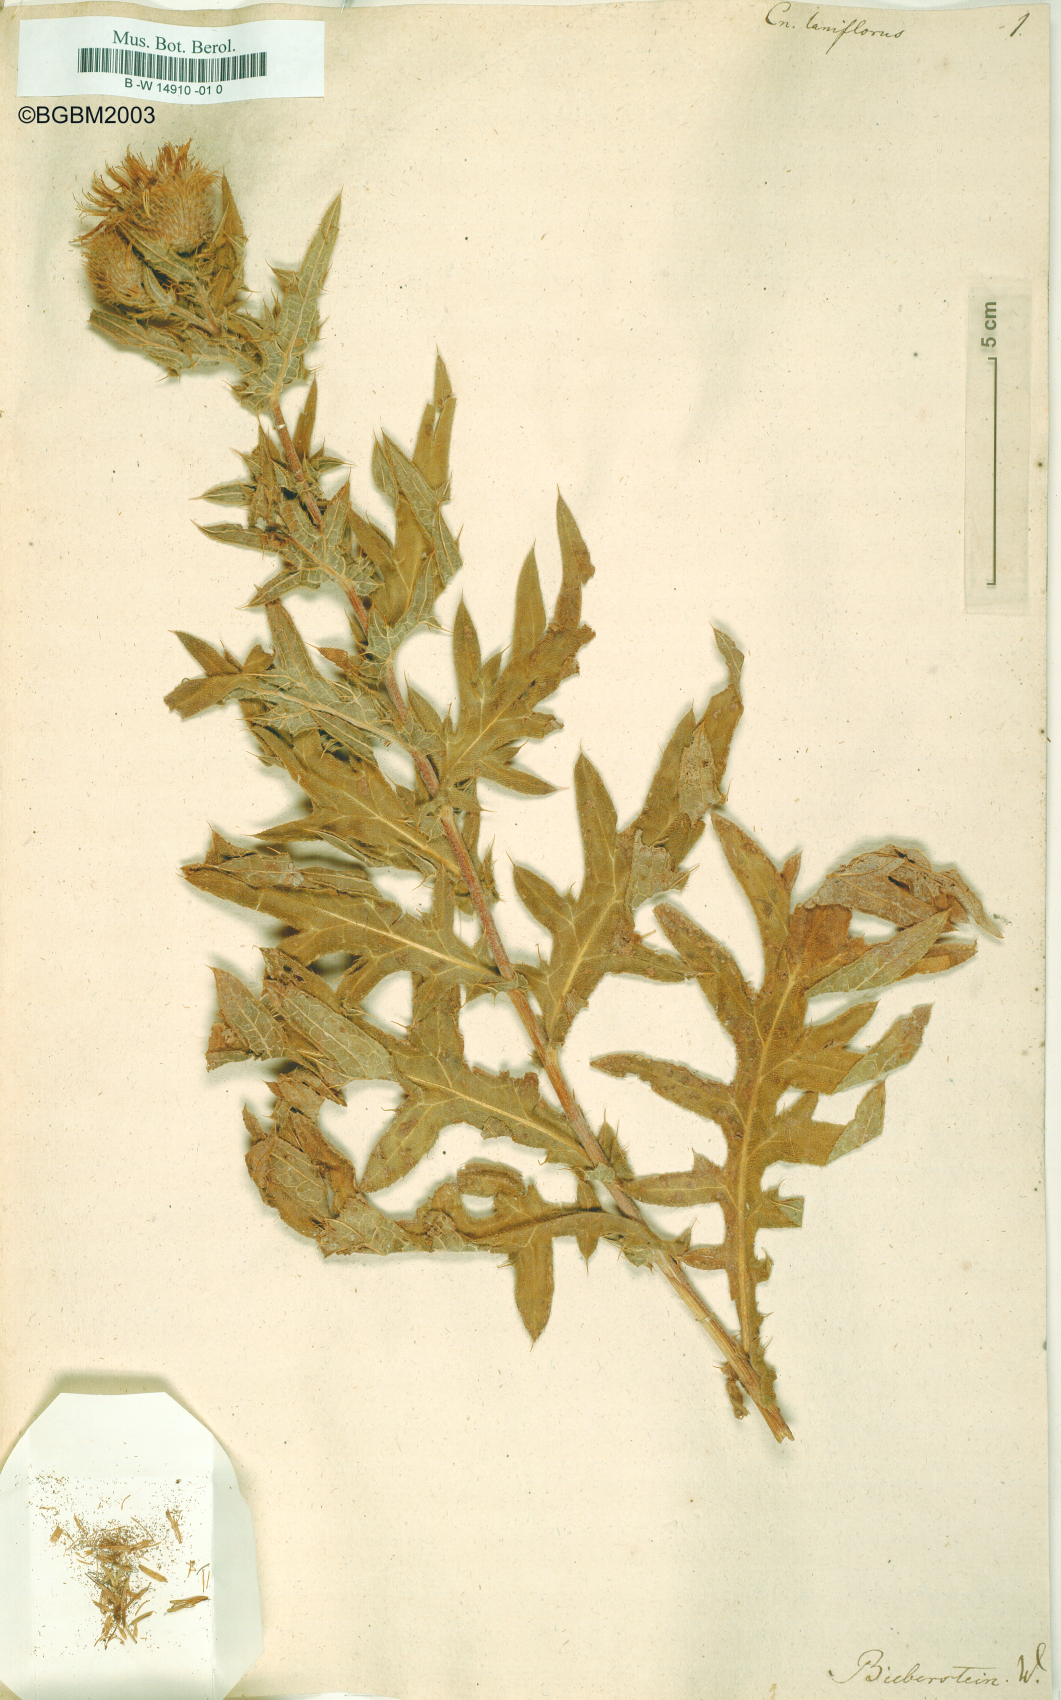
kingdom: Plantae
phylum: Tracheophyta
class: Magnoliopsida
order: Asterales
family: Asteraceae
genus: Lophiolepis
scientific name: Lophiolepis laniflora
